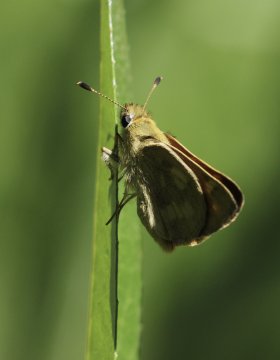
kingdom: Animalia
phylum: Arthropoda
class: Insecta
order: Lepidoptera
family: Hesperiidae
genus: Ochlodes
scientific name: Ochlodes sylvanoides
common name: Woodland Skipper
